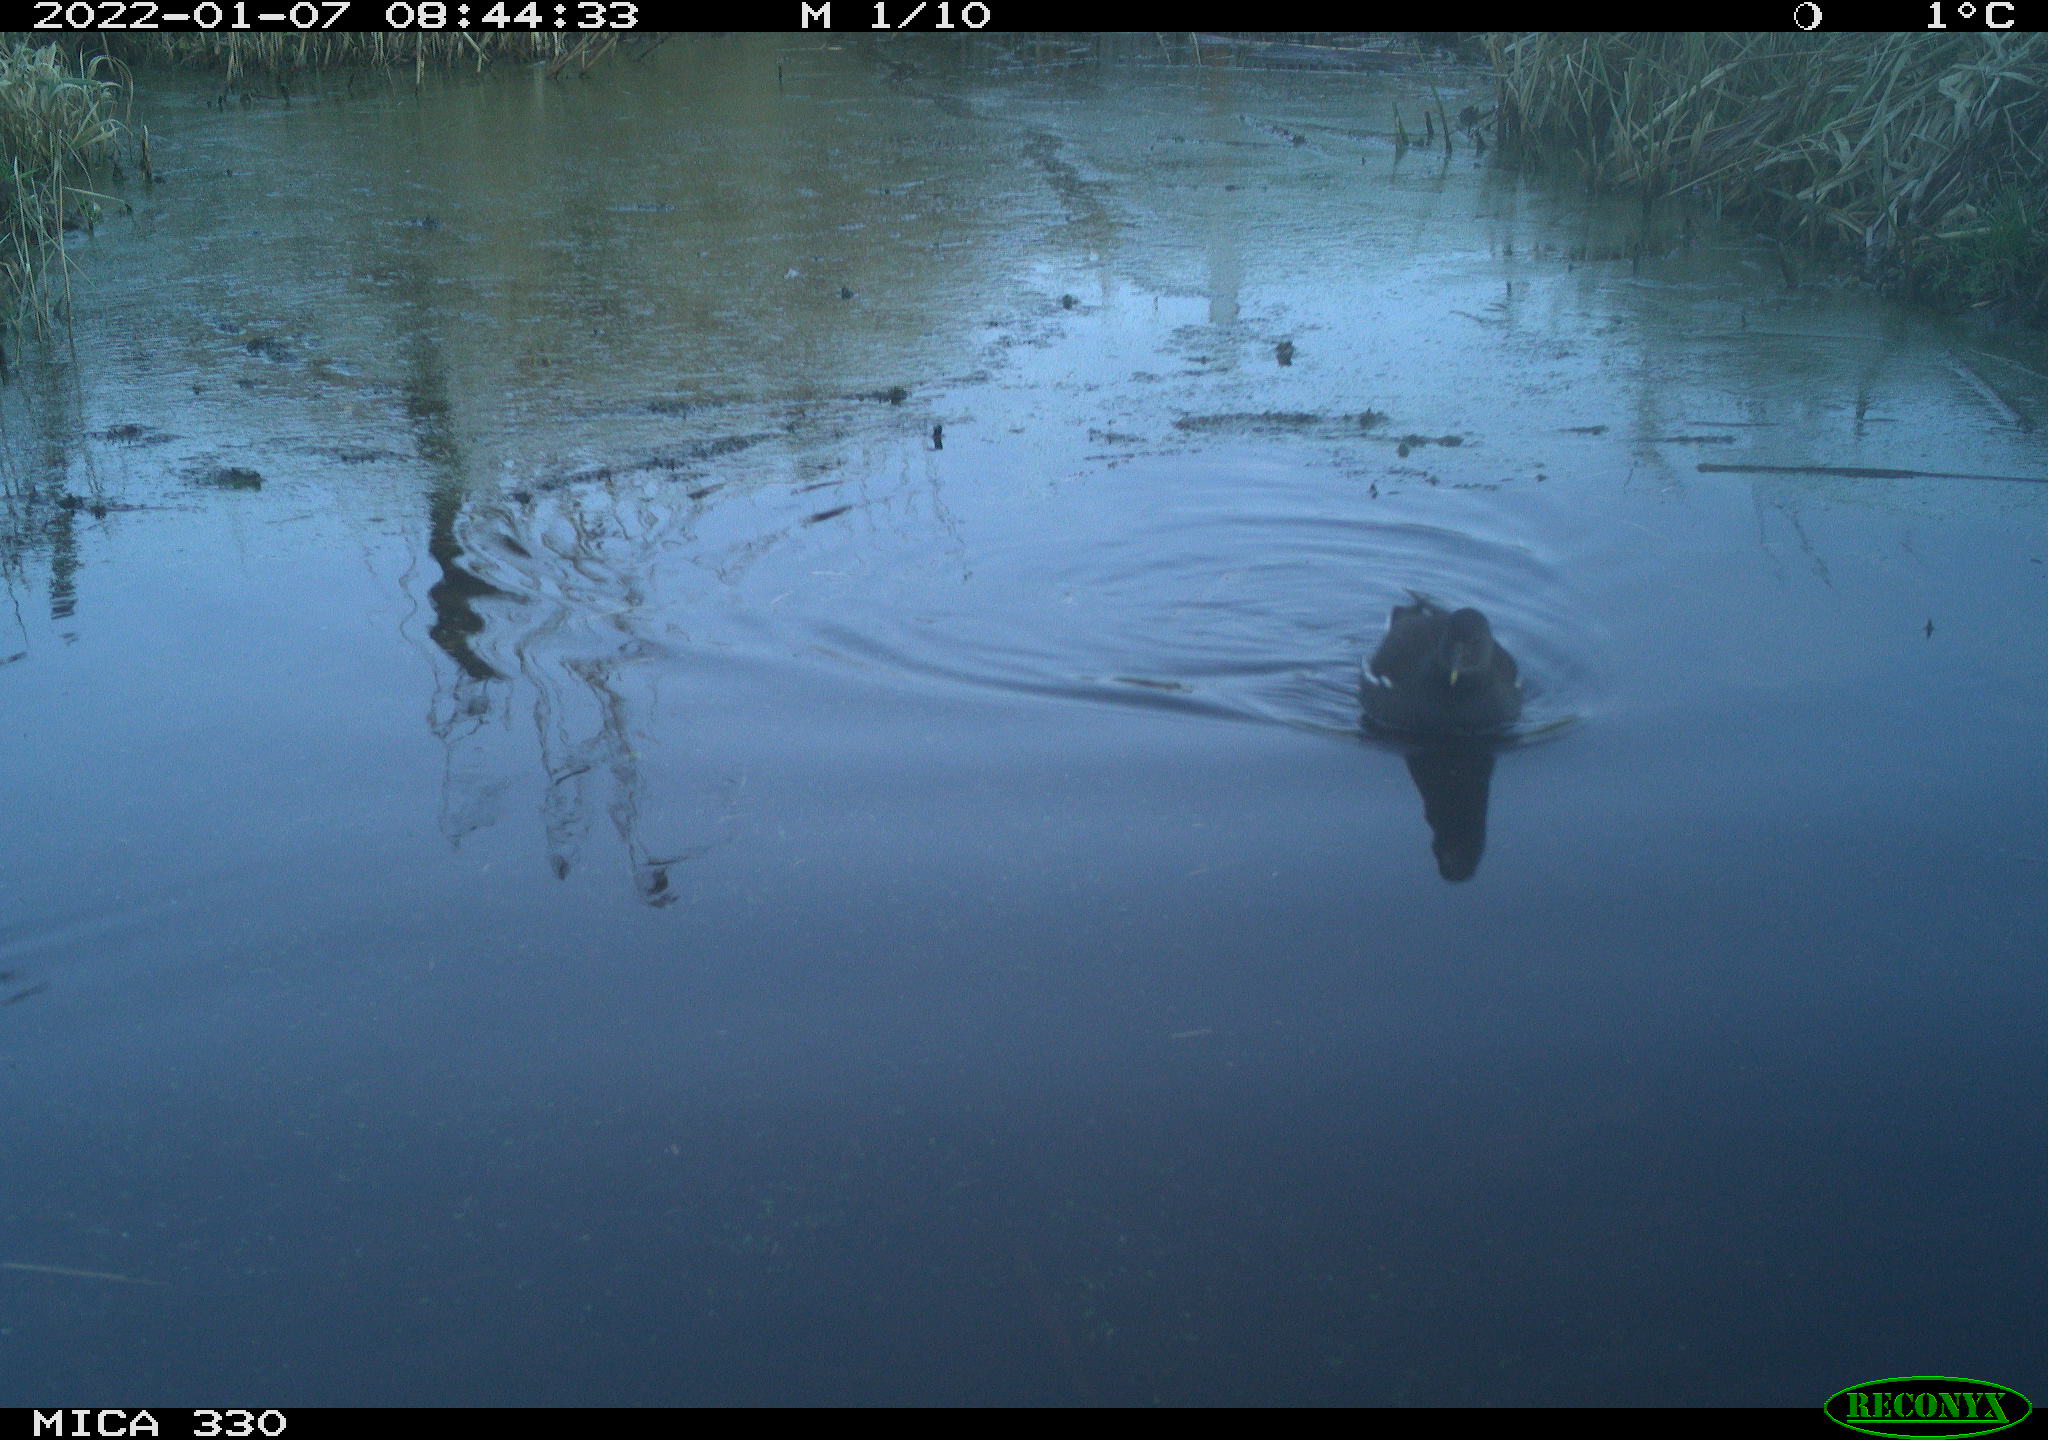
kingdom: Animalia
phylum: Chordata
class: Aves
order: Gruiformes
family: Rallidae
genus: Gallinula
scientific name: Gallinula chloropus
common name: Common moorhen
